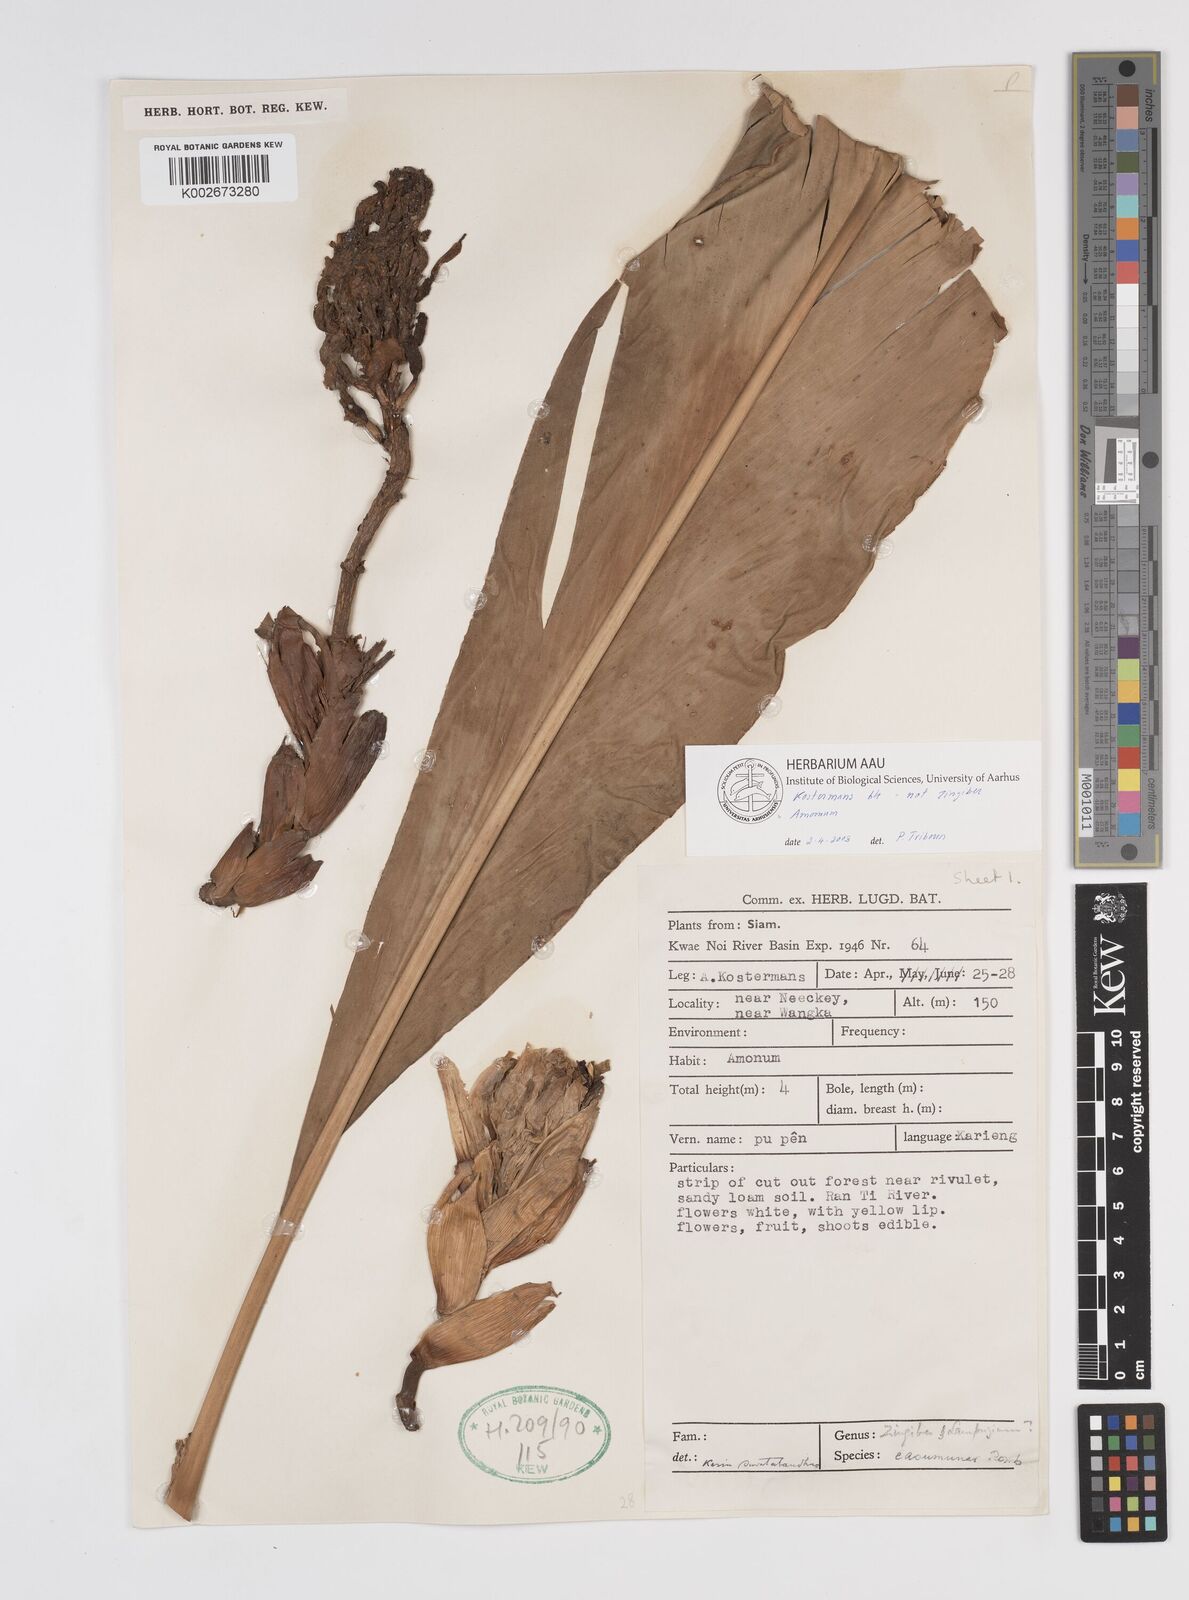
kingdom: Plantae
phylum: Tracheophyta
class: Liliopsida
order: Zingiberales
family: Zingiberaceae
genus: Amomum
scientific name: Amomum
